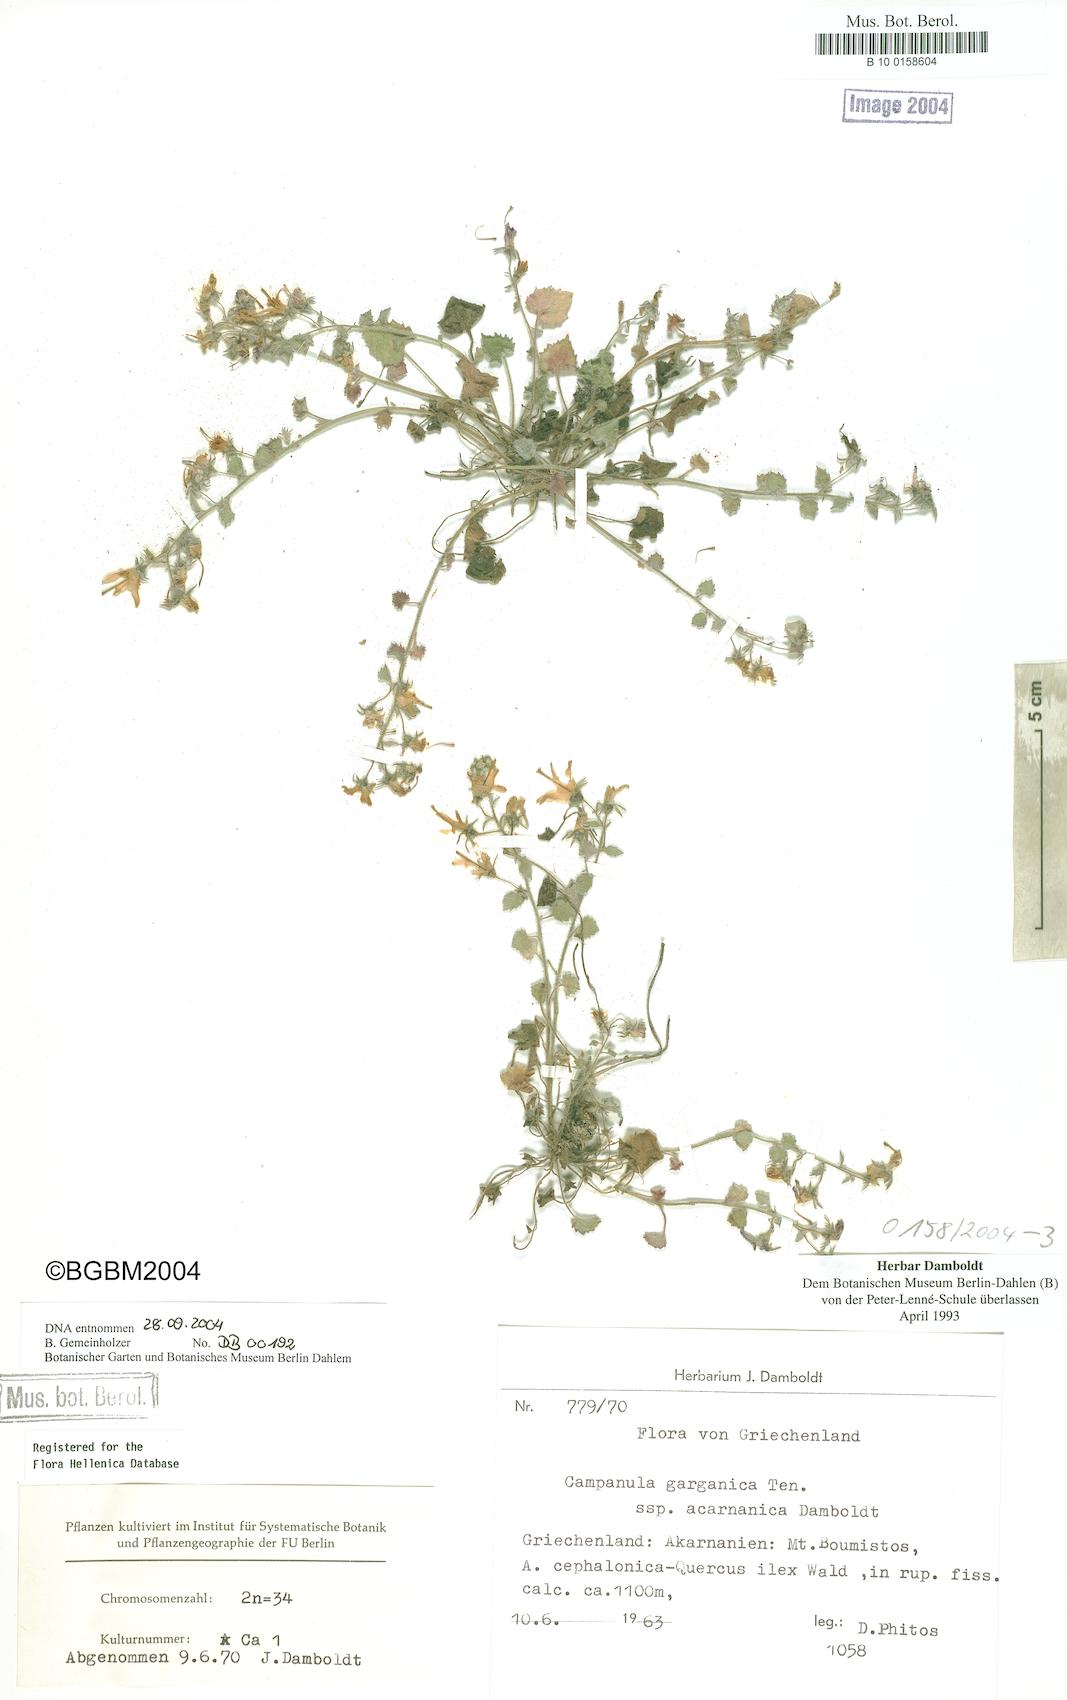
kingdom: Plantae
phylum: Tracheophyta
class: Magnoliopsida
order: Asterales
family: Campanulaceae
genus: Campanula
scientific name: Campanula garganica
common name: Adriatic bellflower
